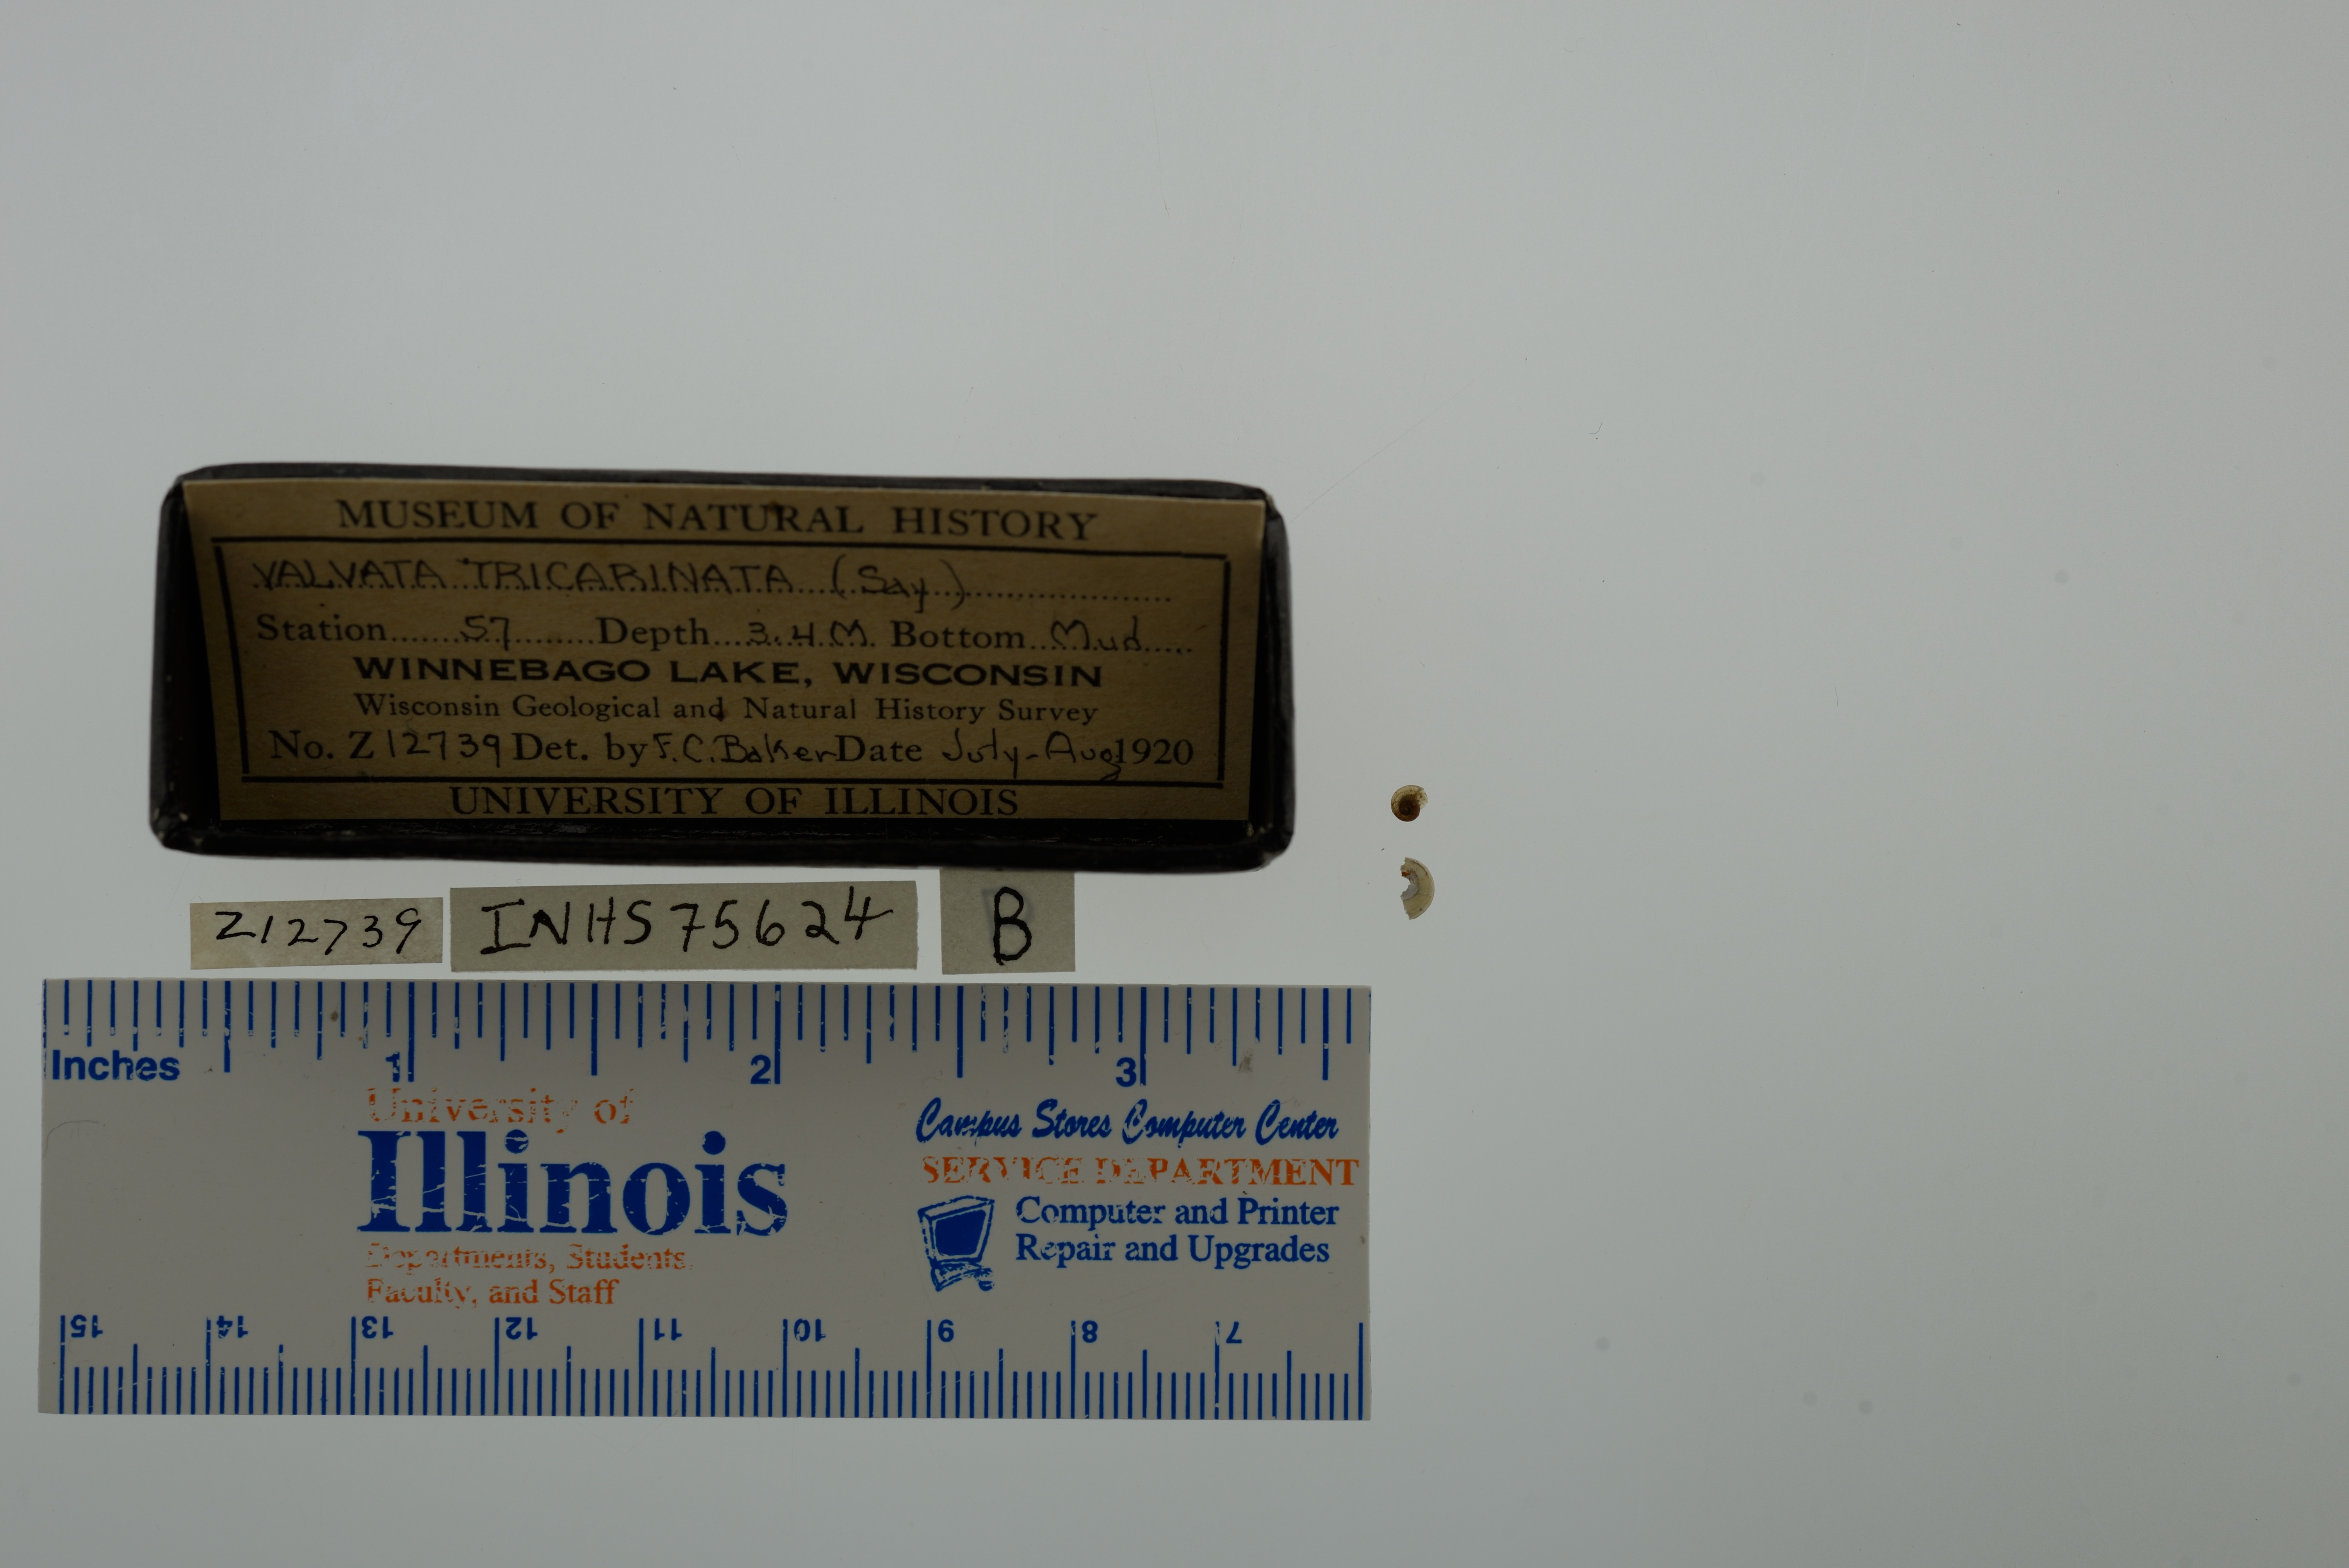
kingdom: Animalia
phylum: Mollusca
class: Gastropoda
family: Valvatidae
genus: Valvata
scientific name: Valvata tricarinata
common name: Three-ridge valvata
